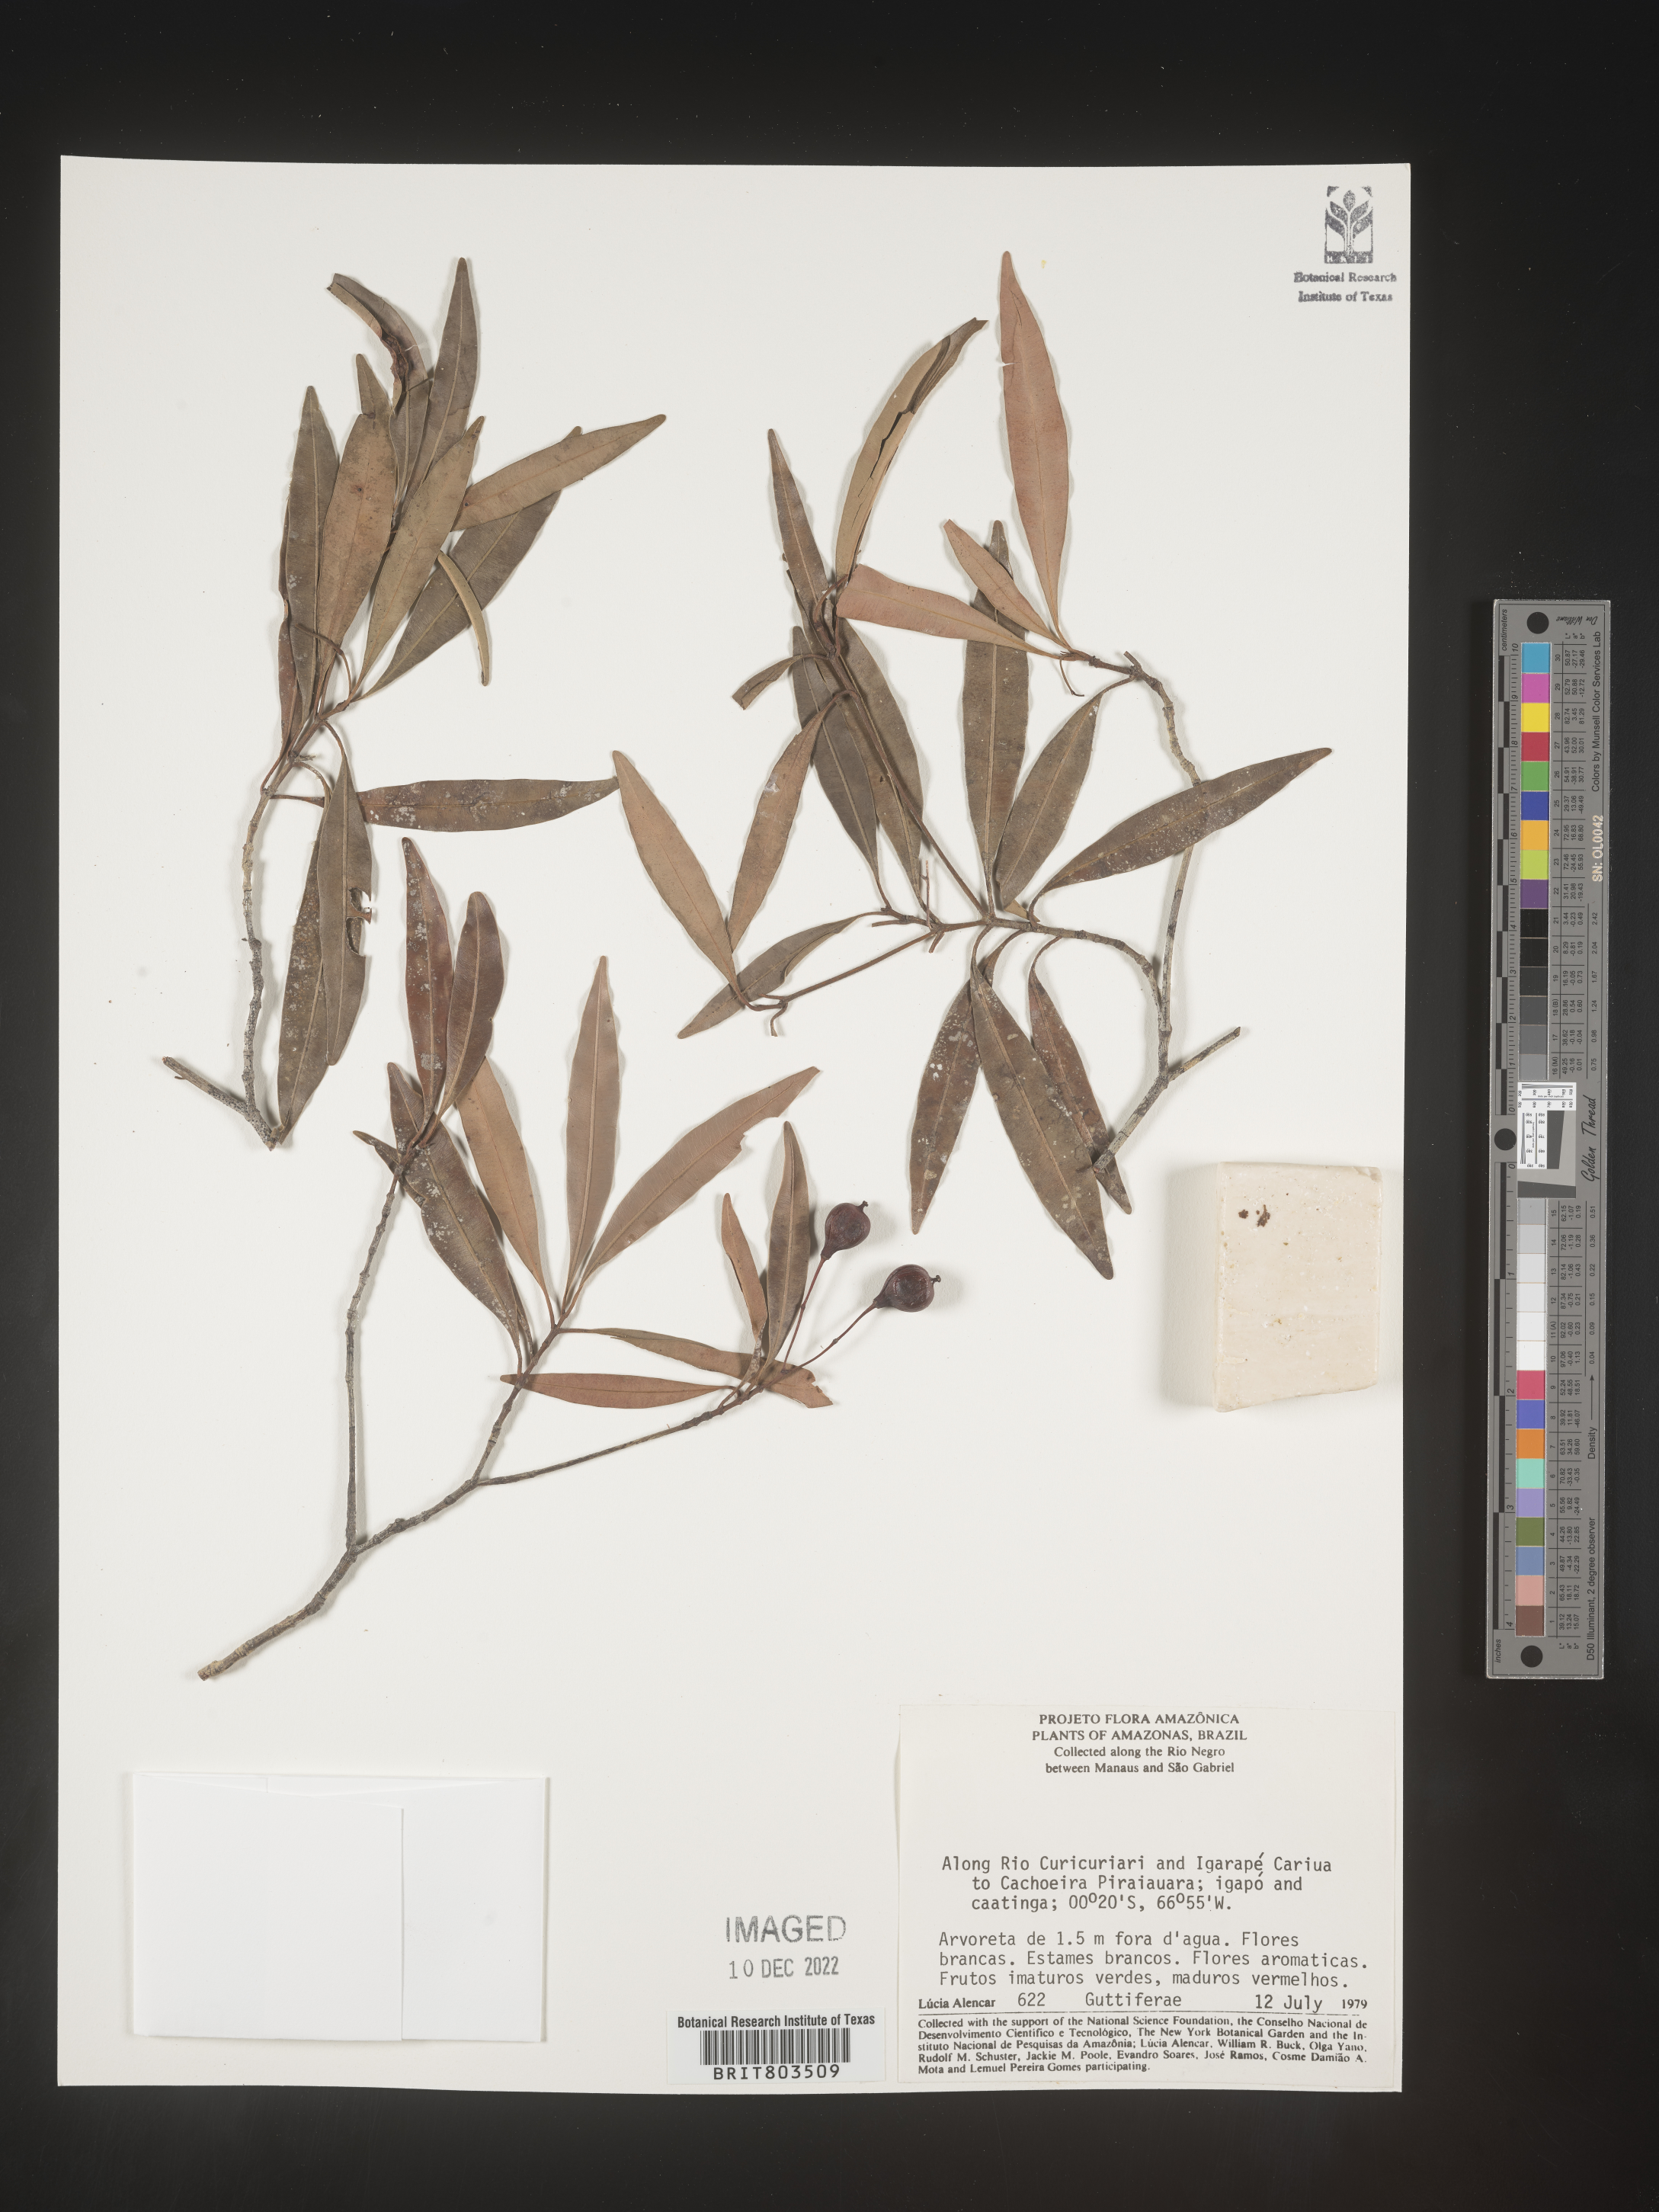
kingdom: Plantae
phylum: Tracheophyta
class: Magnoliopsida
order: Malpighiales
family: Clusiaceae
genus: Tovomita
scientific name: Tovomita
